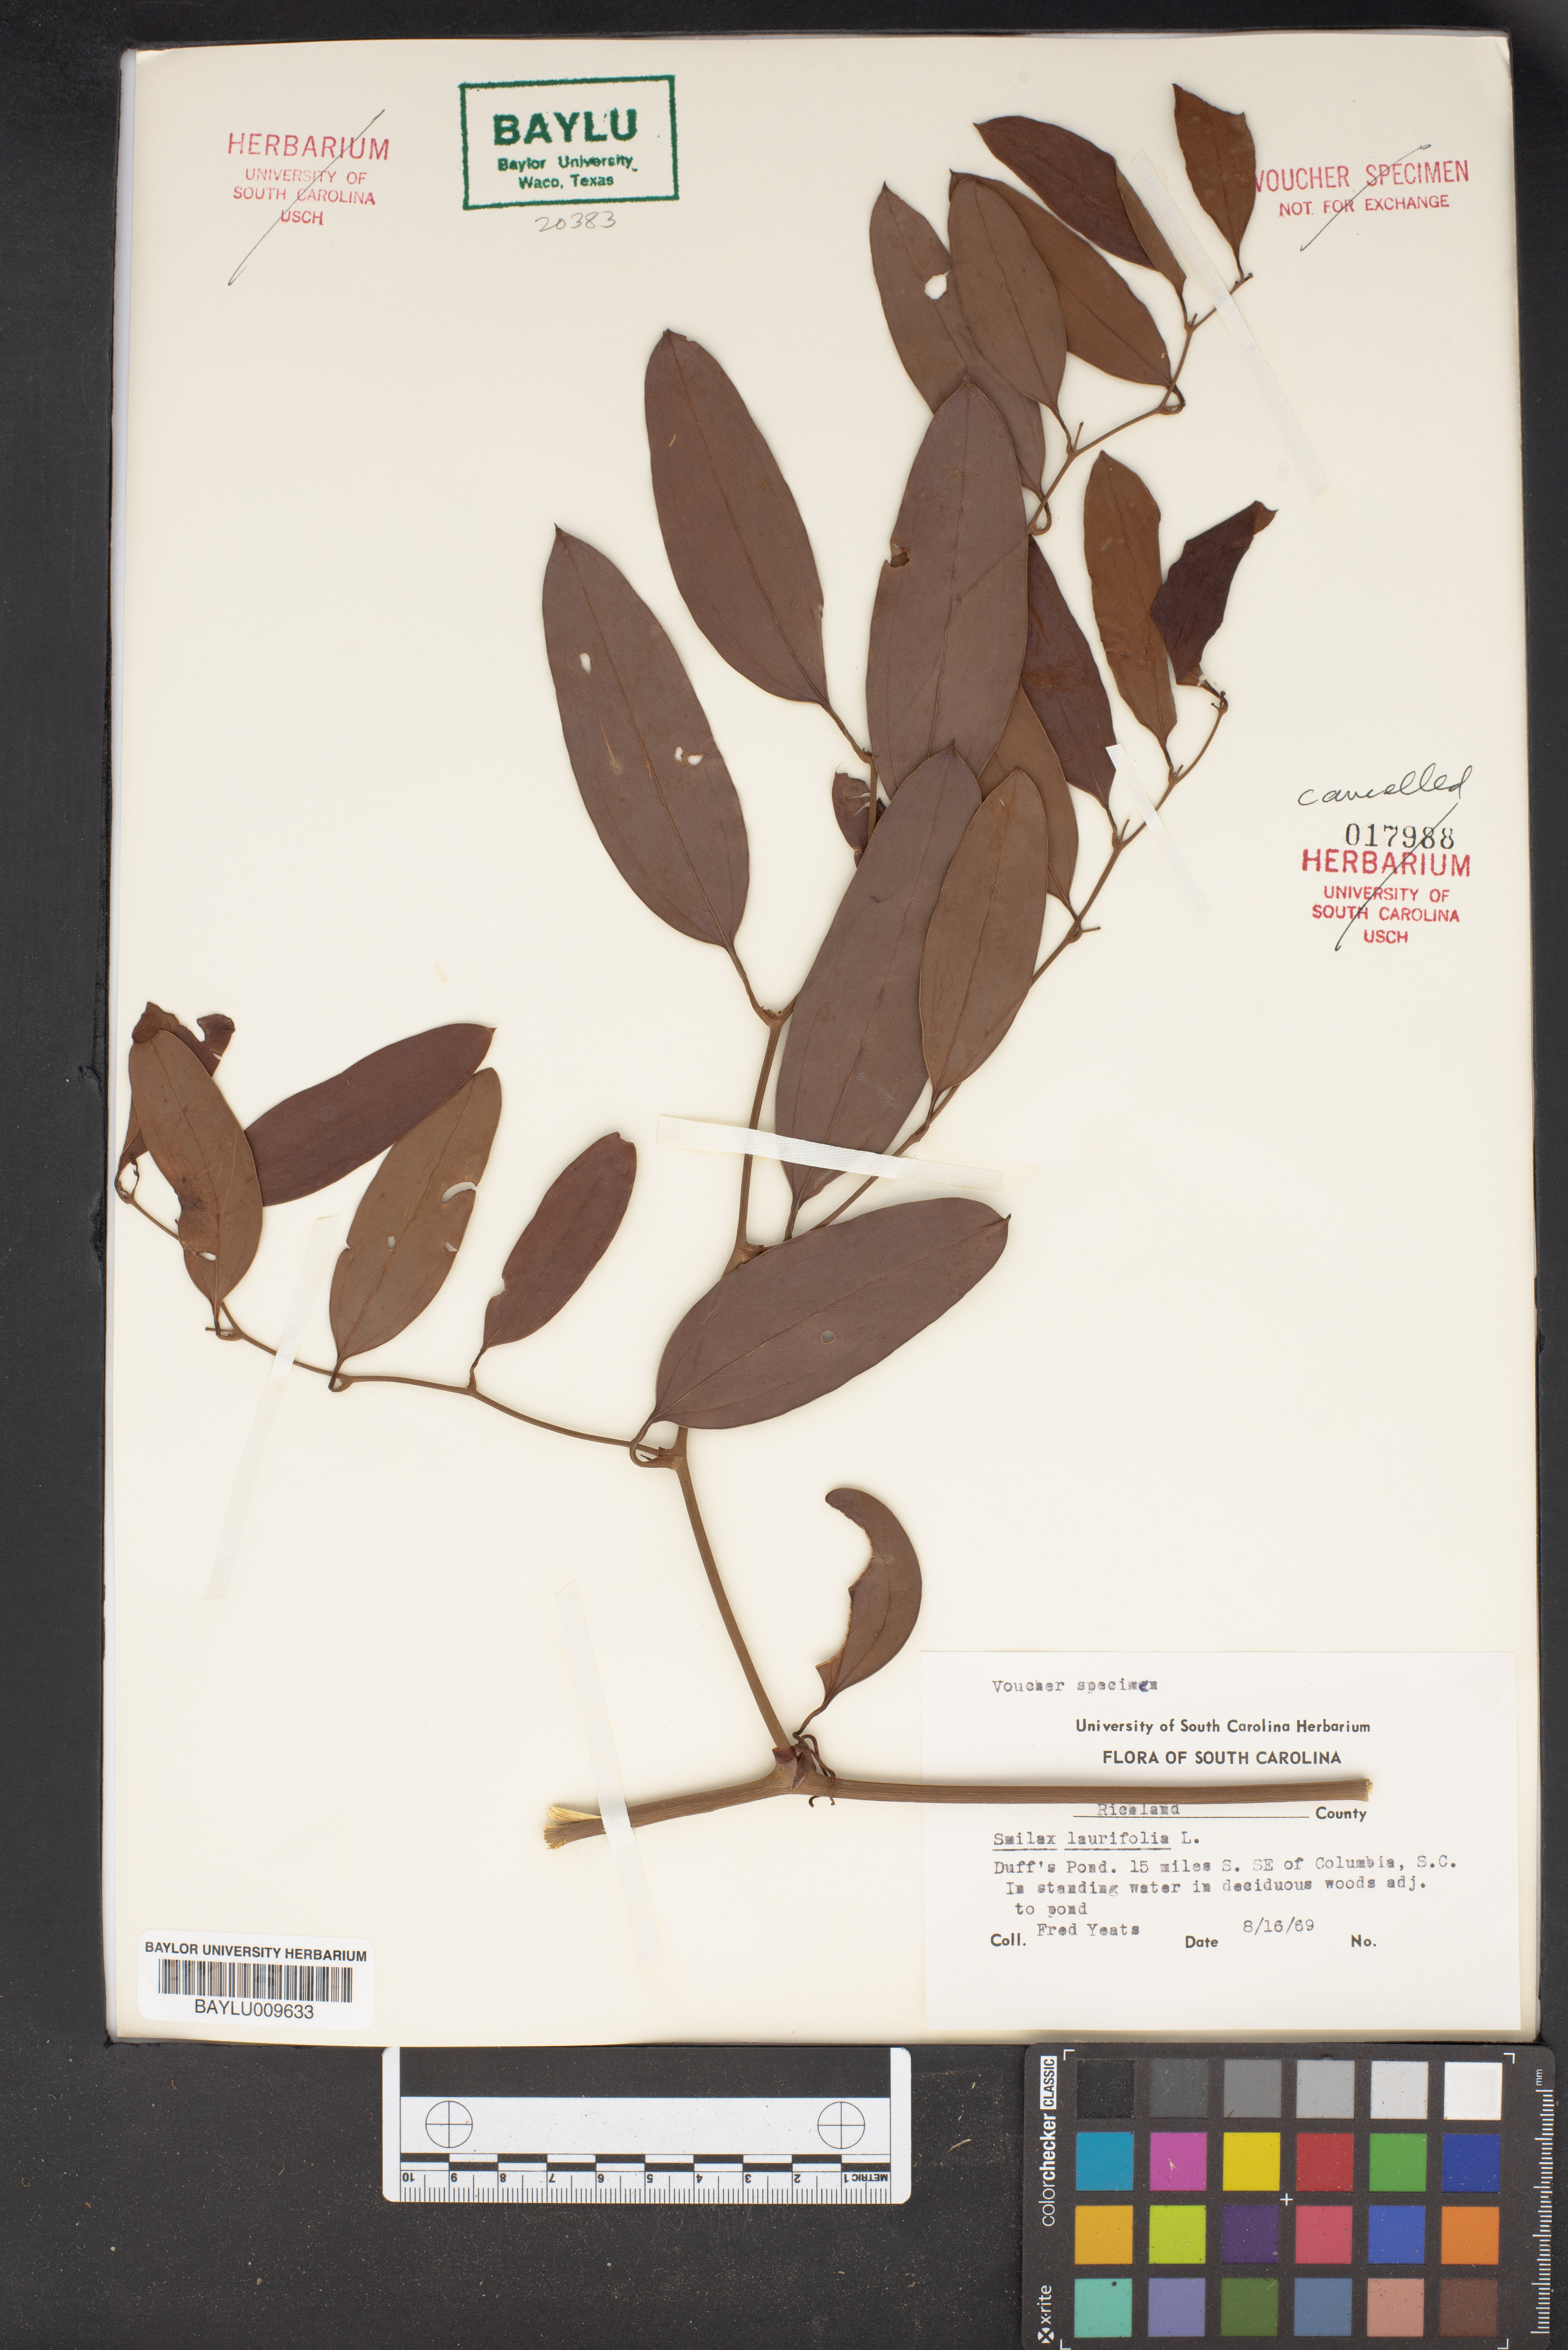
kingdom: Plantae
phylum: Tracheophyta
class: Liliopsida
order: Liliales
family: Smilacaceae
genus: Smilax
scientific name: Smilax laurifolia
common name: Bamboovine
